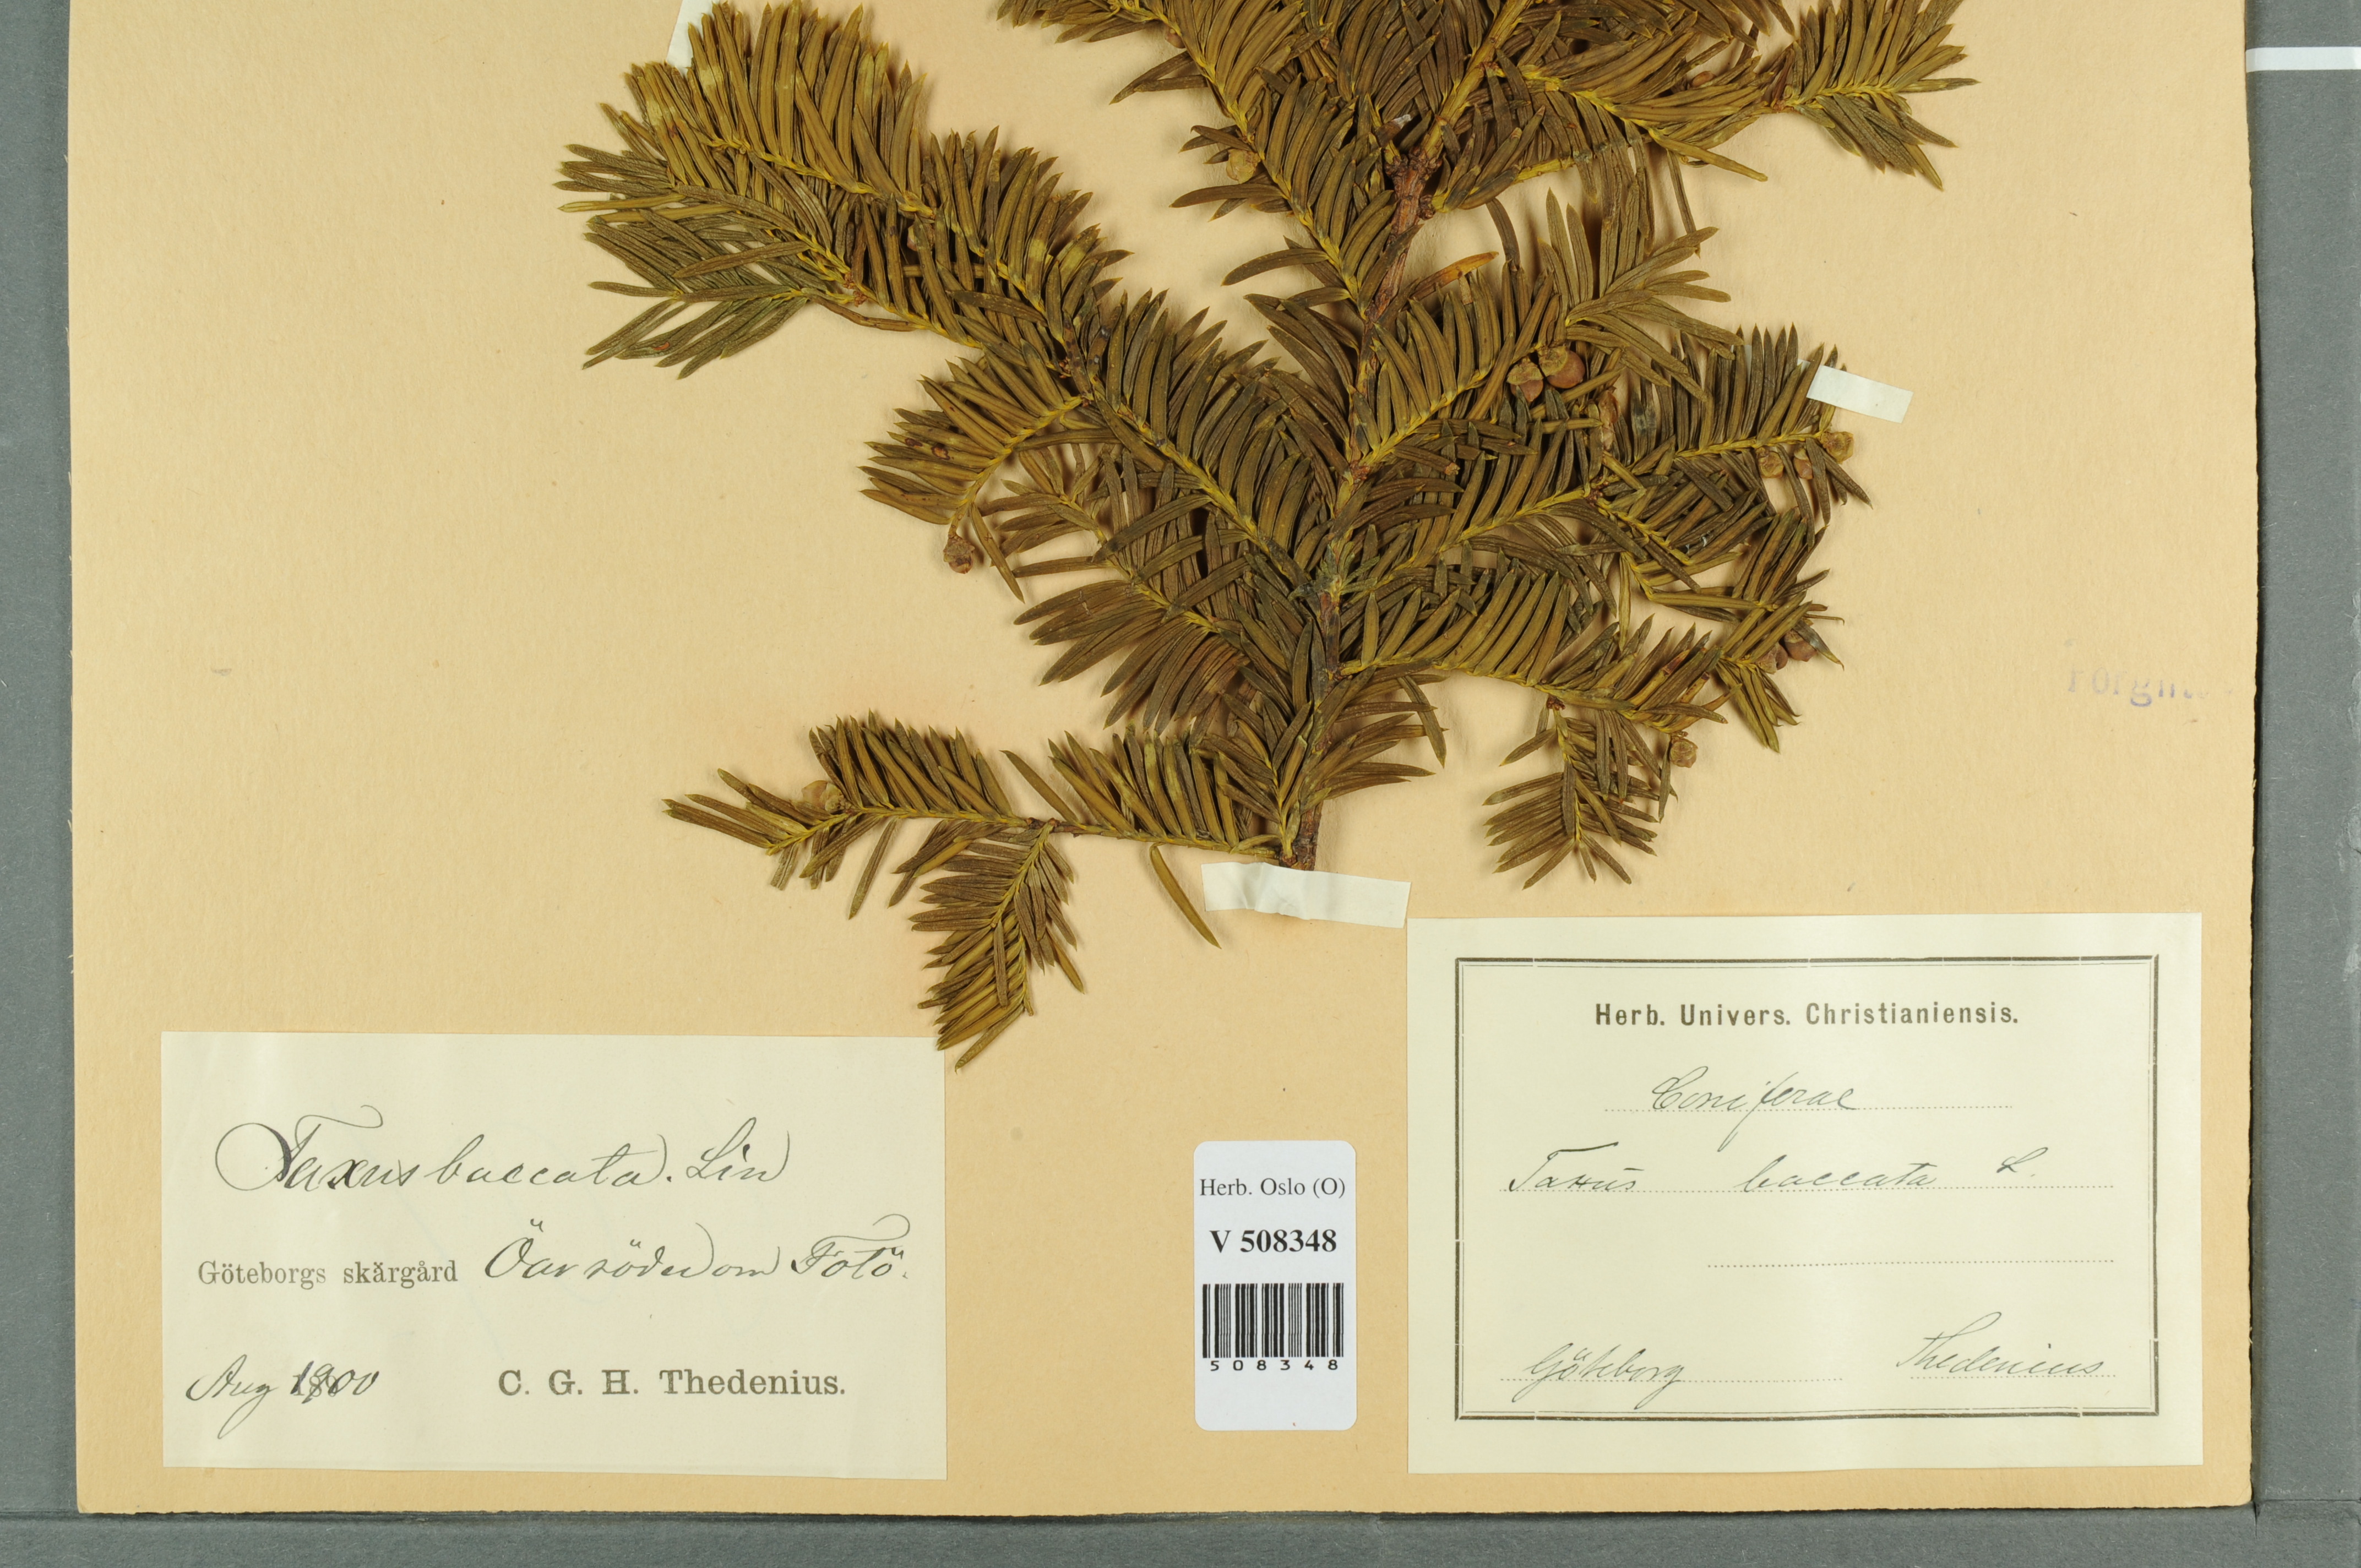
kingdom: Plantae
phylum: Tracheophyta
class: Pinopsida
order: Pinales
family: Taxaceae
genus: Taxus
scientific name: Taxus baccata
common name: Yew
